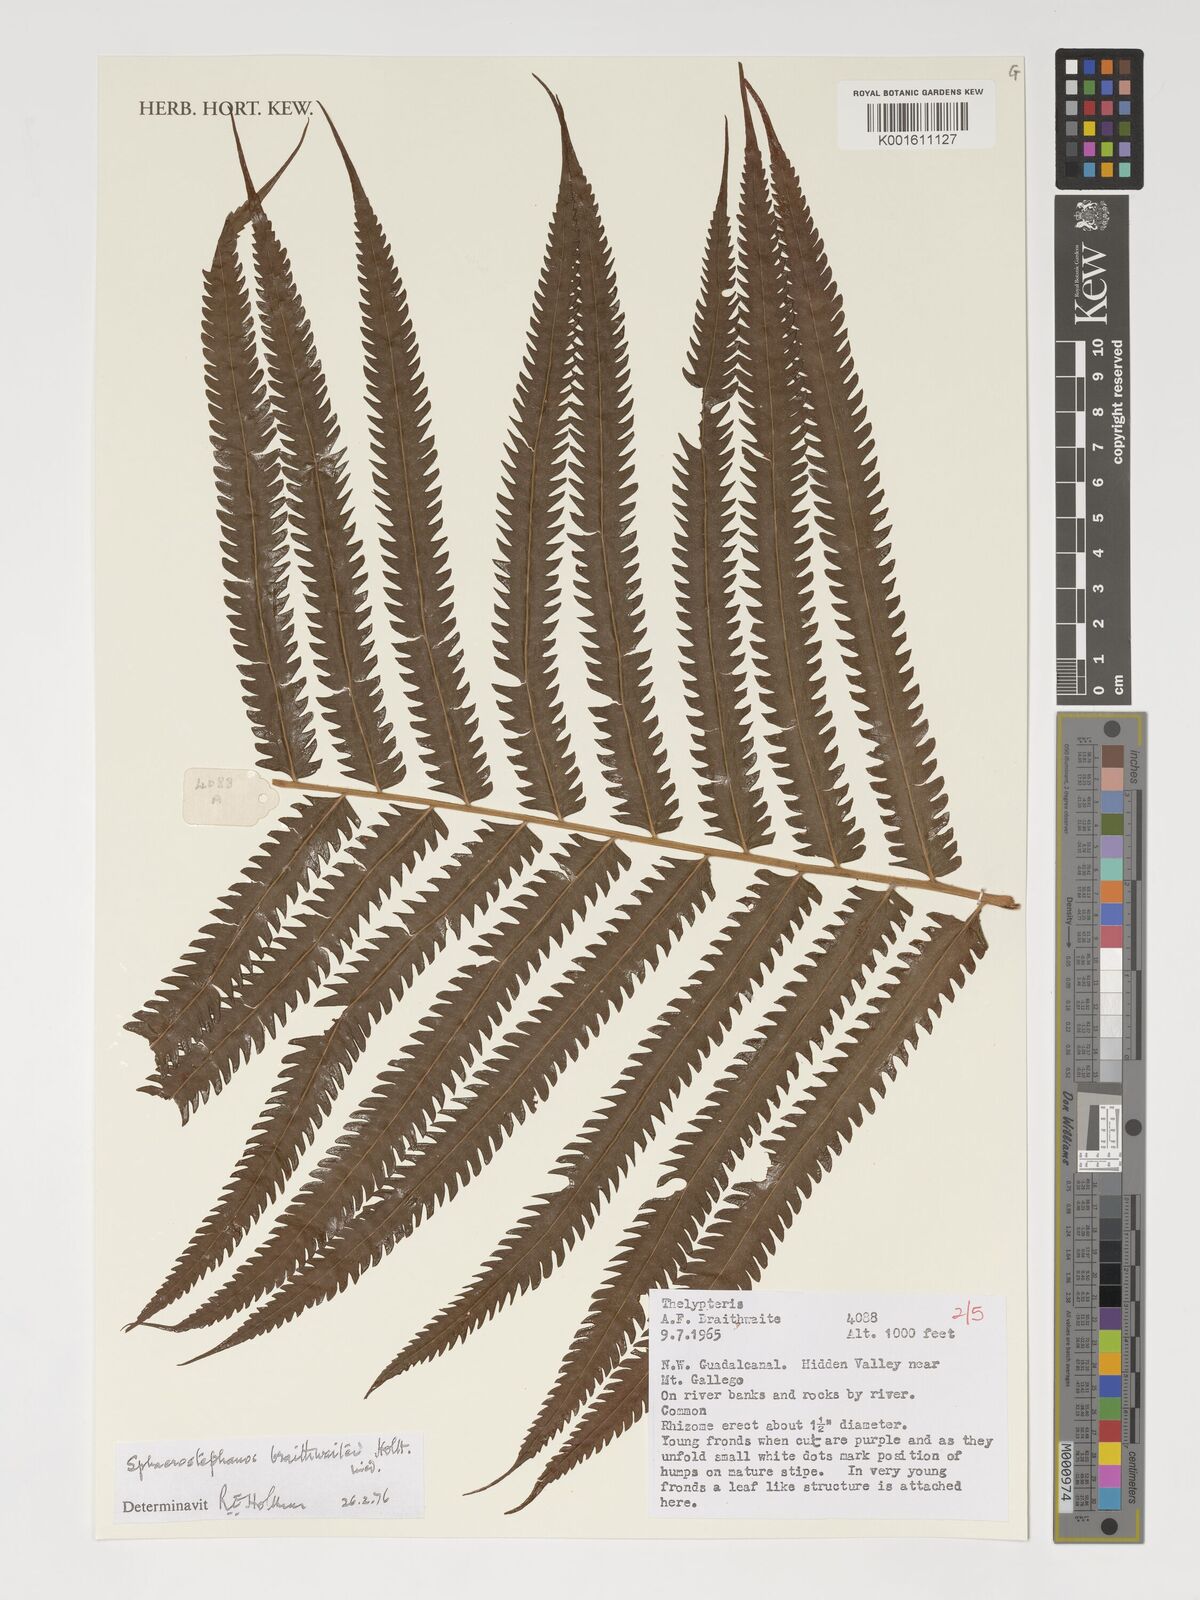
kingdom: Plantae
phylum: Tracheophyta
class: Polypodiopsida
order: Polypodiales
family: Thelypteridaceae
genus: Sphaerostephanos
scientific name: Sphaerostephanos braithwaitei
